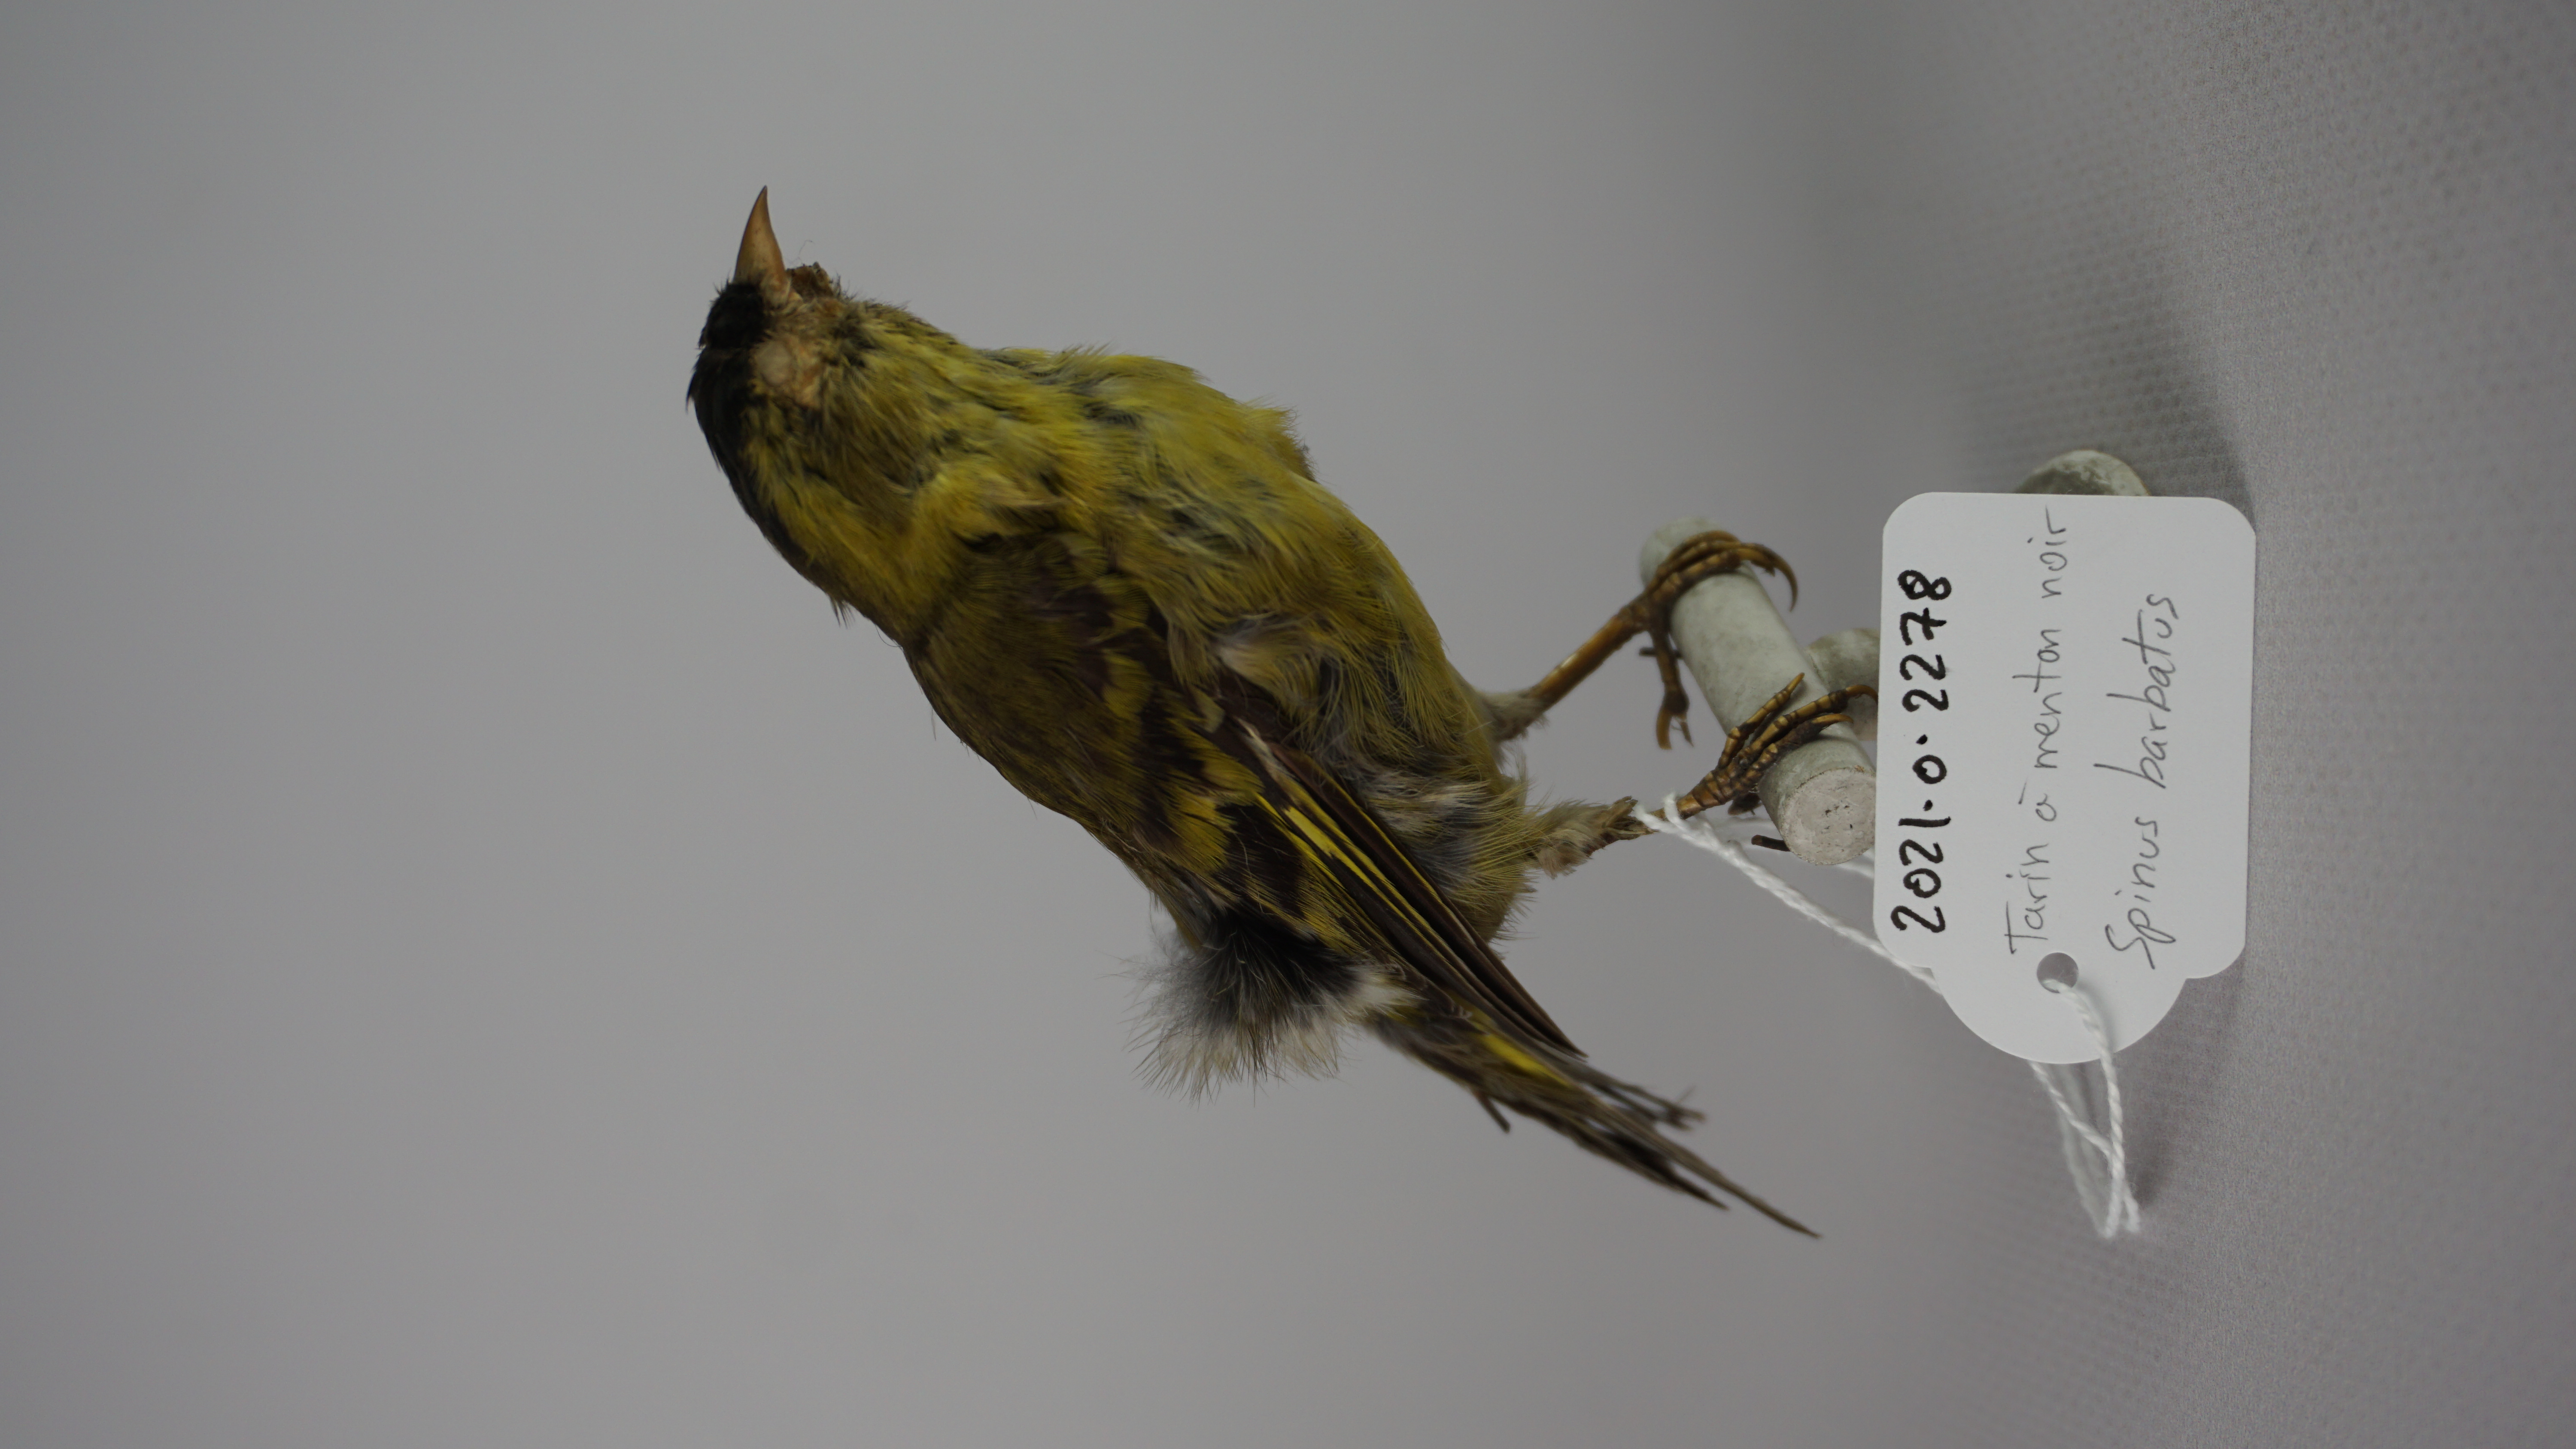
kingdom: Animalia
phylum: Chordata
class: Aves
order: Passeriformes
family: Fringillidae
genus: Spinus
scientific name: Spinus barbatus
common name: Black-chinned siskin
